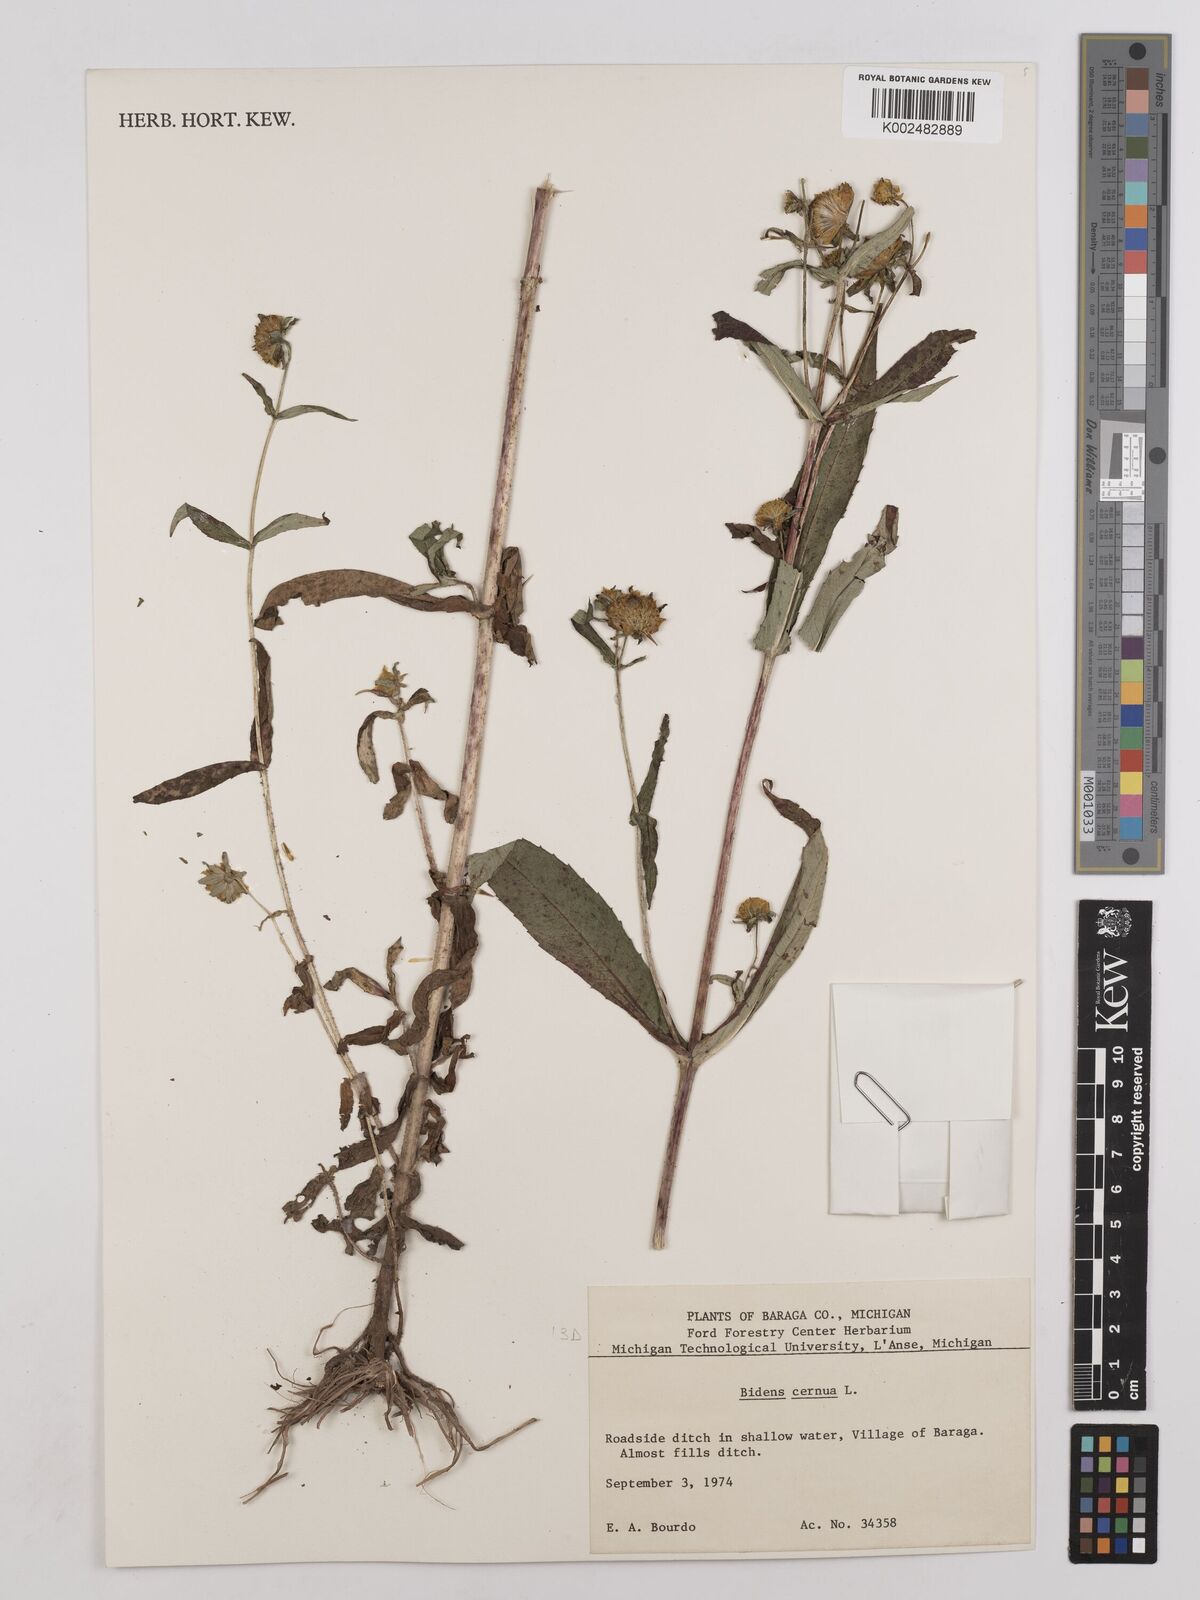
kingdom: Plantae
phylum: Tracheophyta
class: Magnoliopsida
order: Asterales
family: Asteraceae
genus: Bidens
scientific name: Bidens cernua
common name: Nodding bur-marigold
